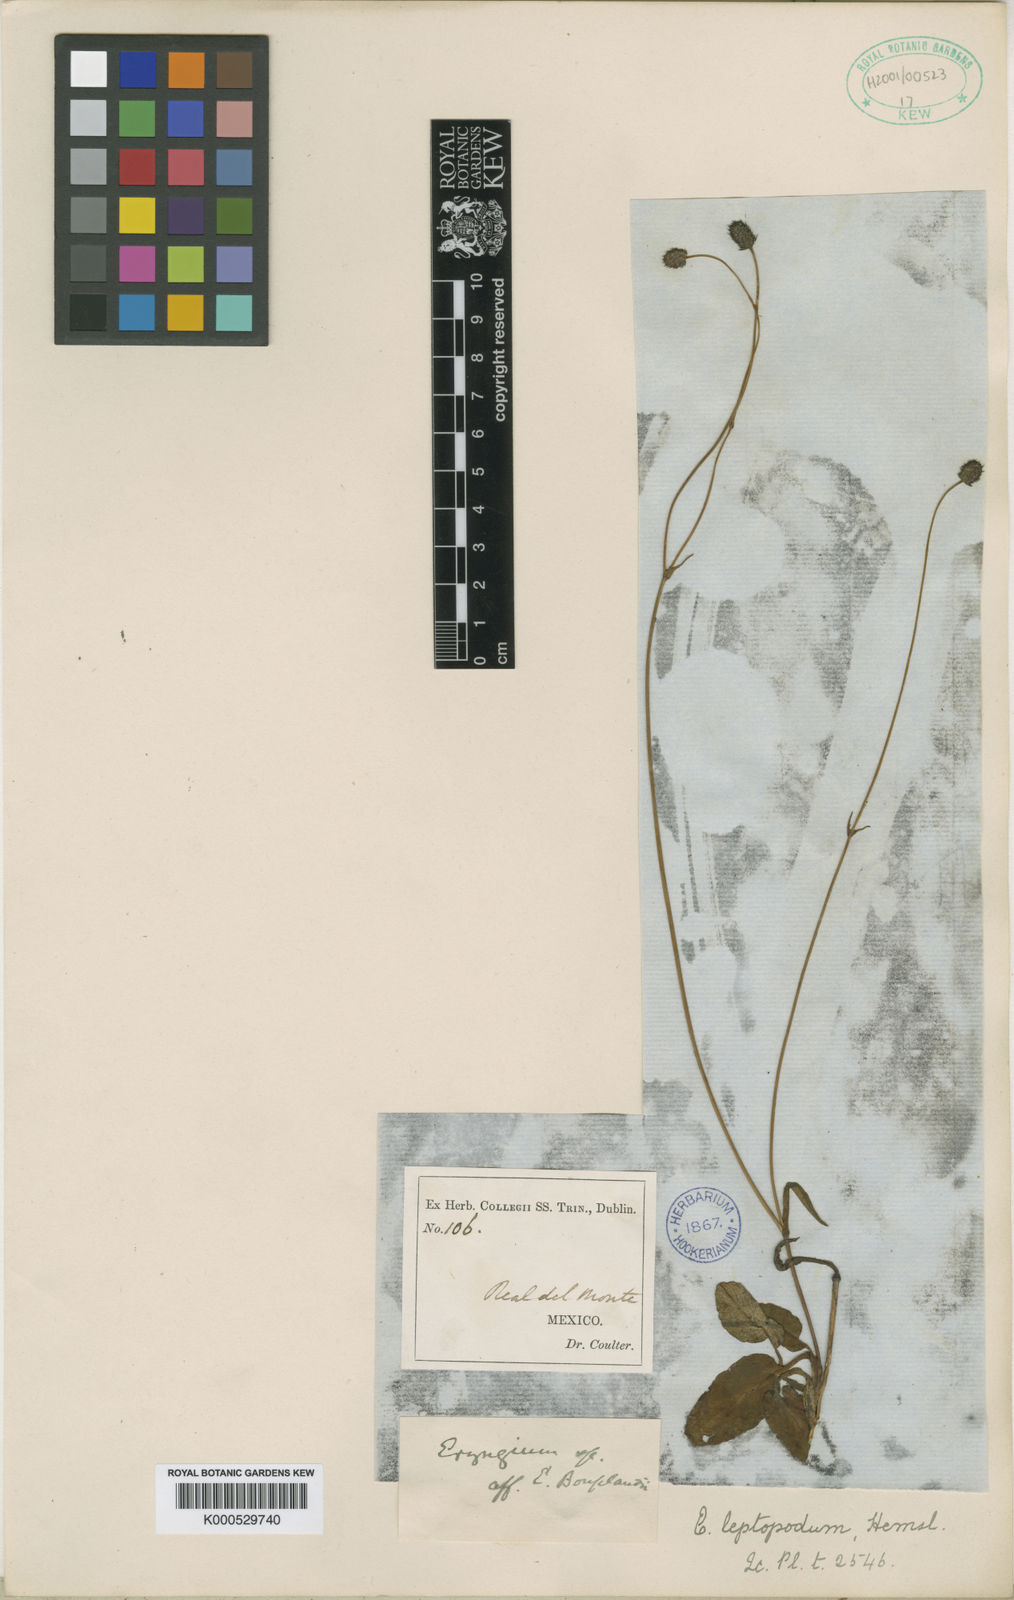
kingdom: Plantae
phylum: Tracheophyta
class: Magnoliopsida
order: Apiales
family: Apiaceae
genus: Eryngium
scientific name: Eryngium bonplandii
